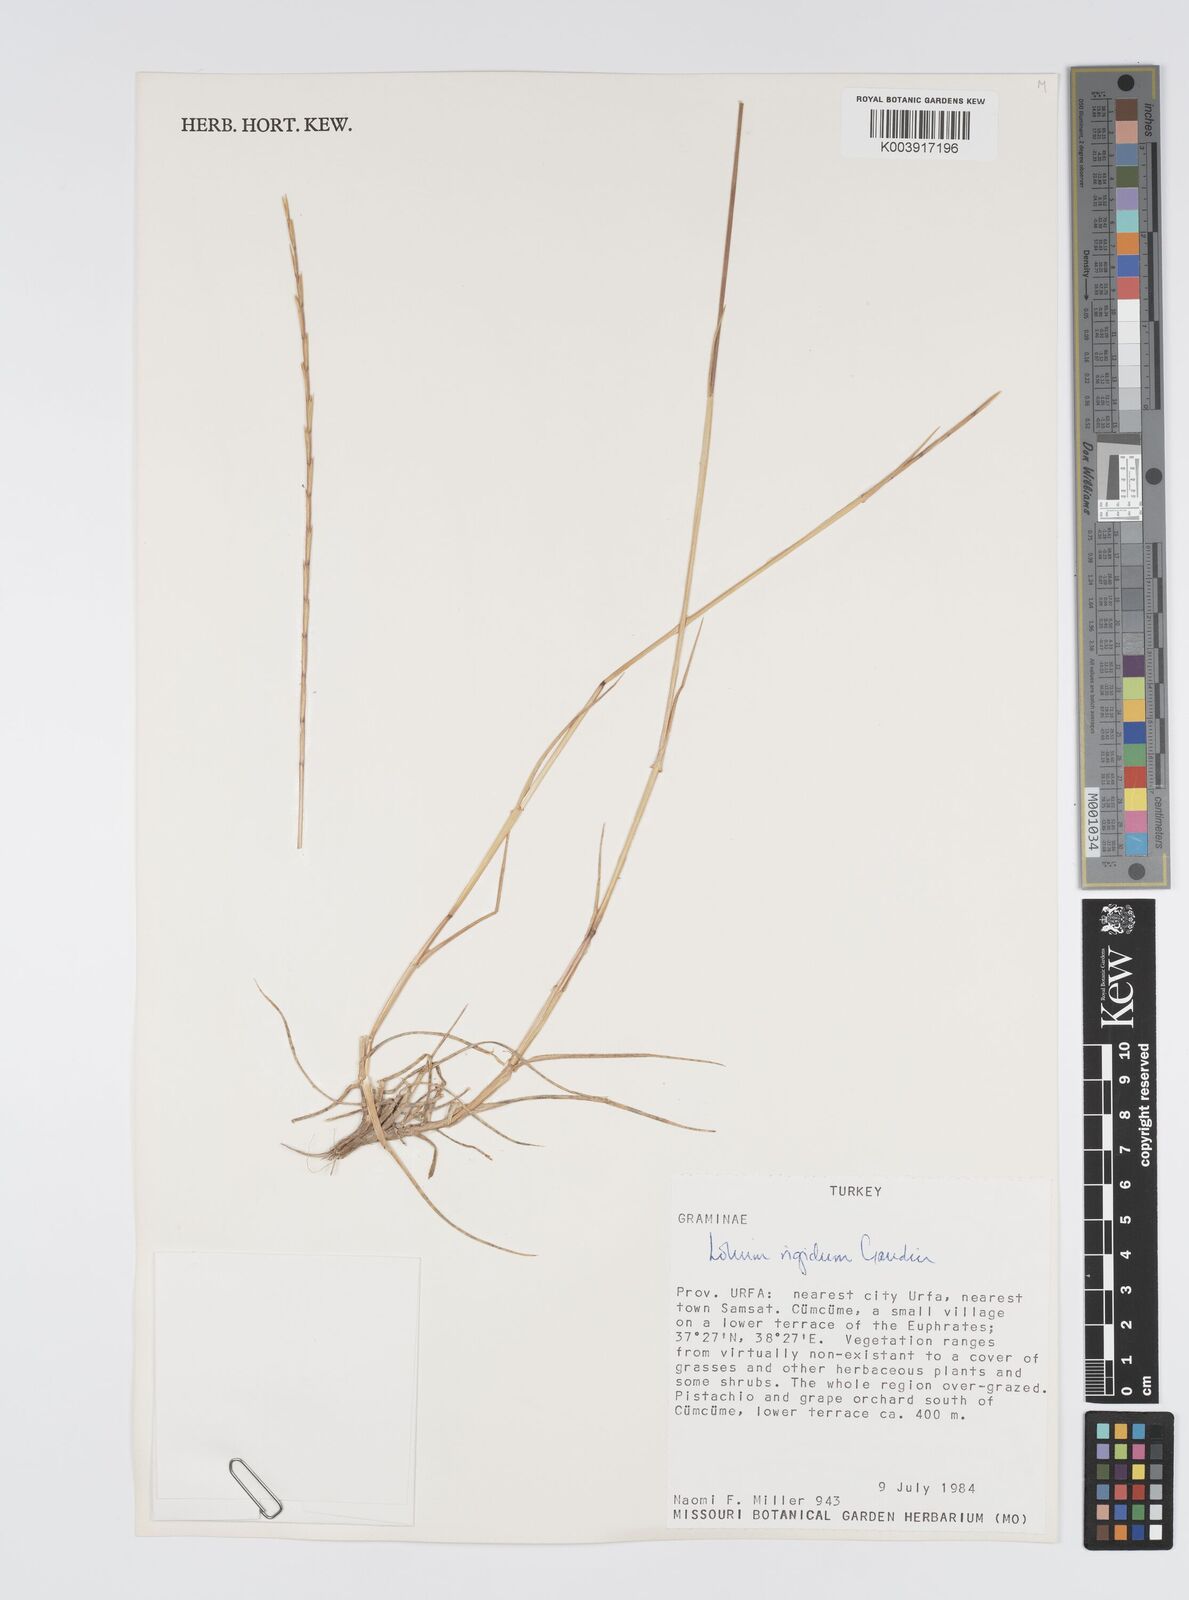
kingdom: Plantae
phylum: Tracheophyta
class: Liliopsida
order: Poales
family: Poaceae
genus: Lolium
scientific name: Lolium rigidum
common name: Wimmera ryegrass
